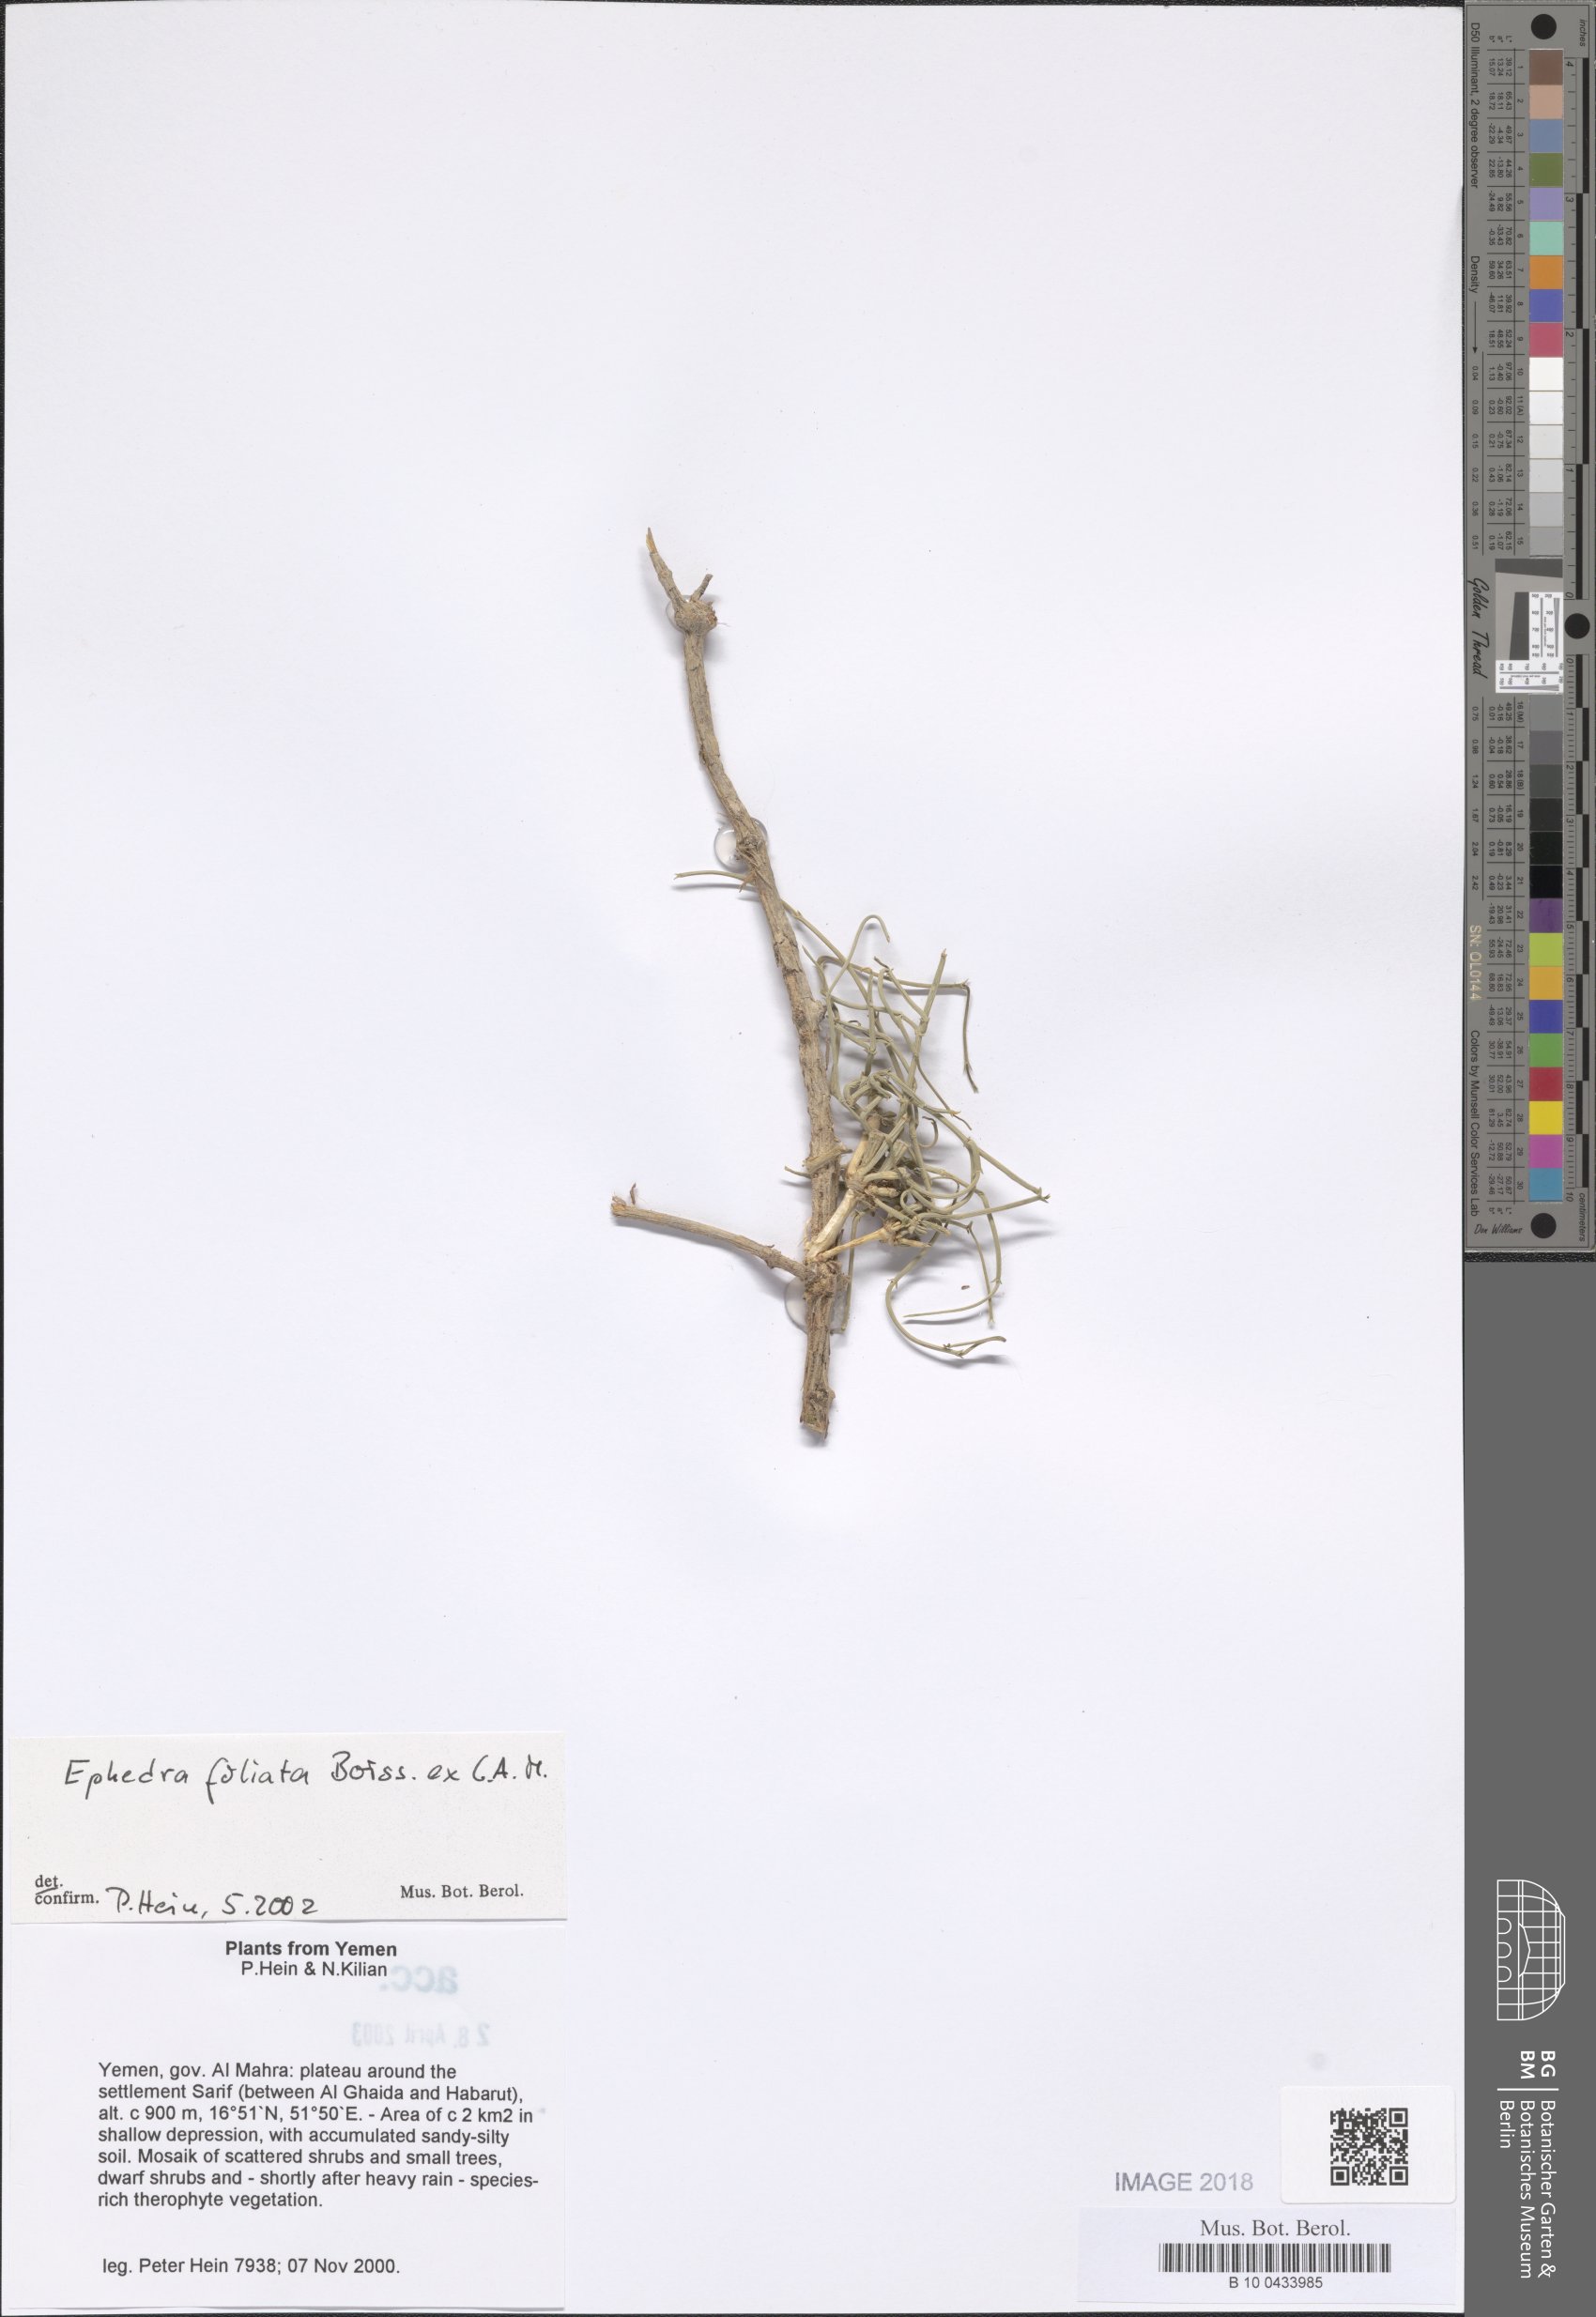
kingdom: Plantae
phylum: Tracheophyta
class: Gnetopsida
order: Ephedrales
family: Ephedraceae
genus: Ephedra
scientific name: Ephedra ciliata
